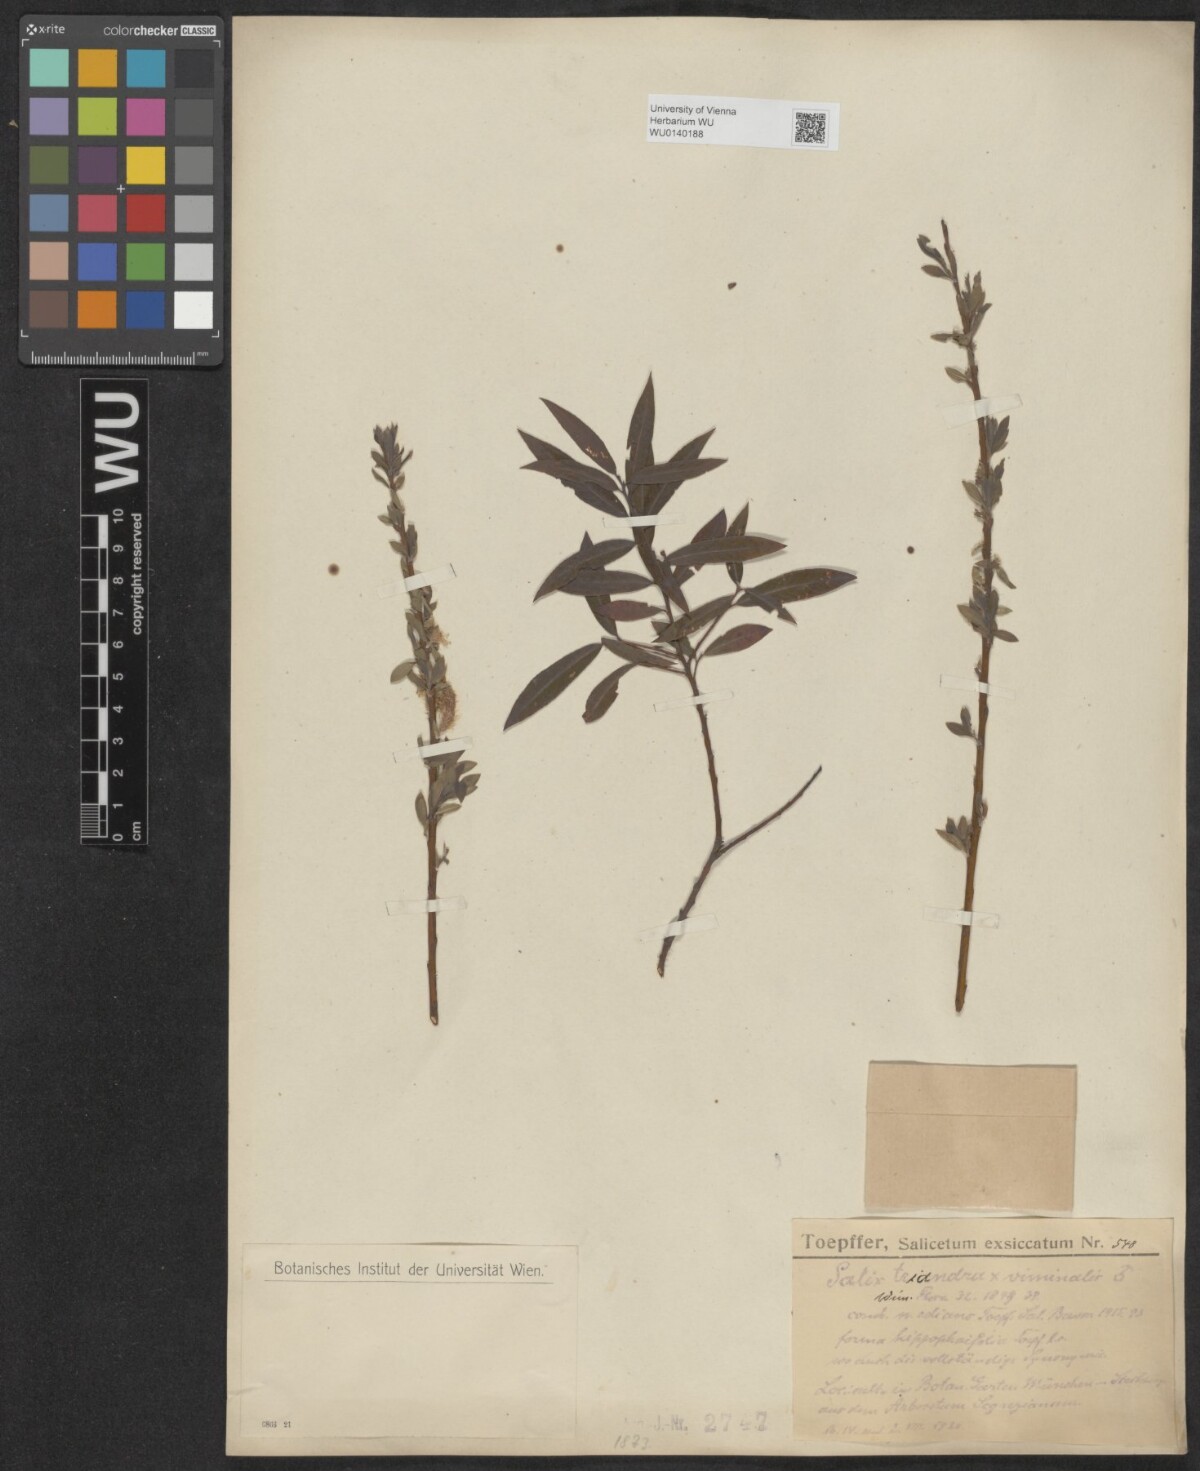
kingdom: Plantae
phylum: Tracheophyta
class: Magnoliopsida
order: Malpighiales
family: Salicaceae
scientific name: Salicaceae
